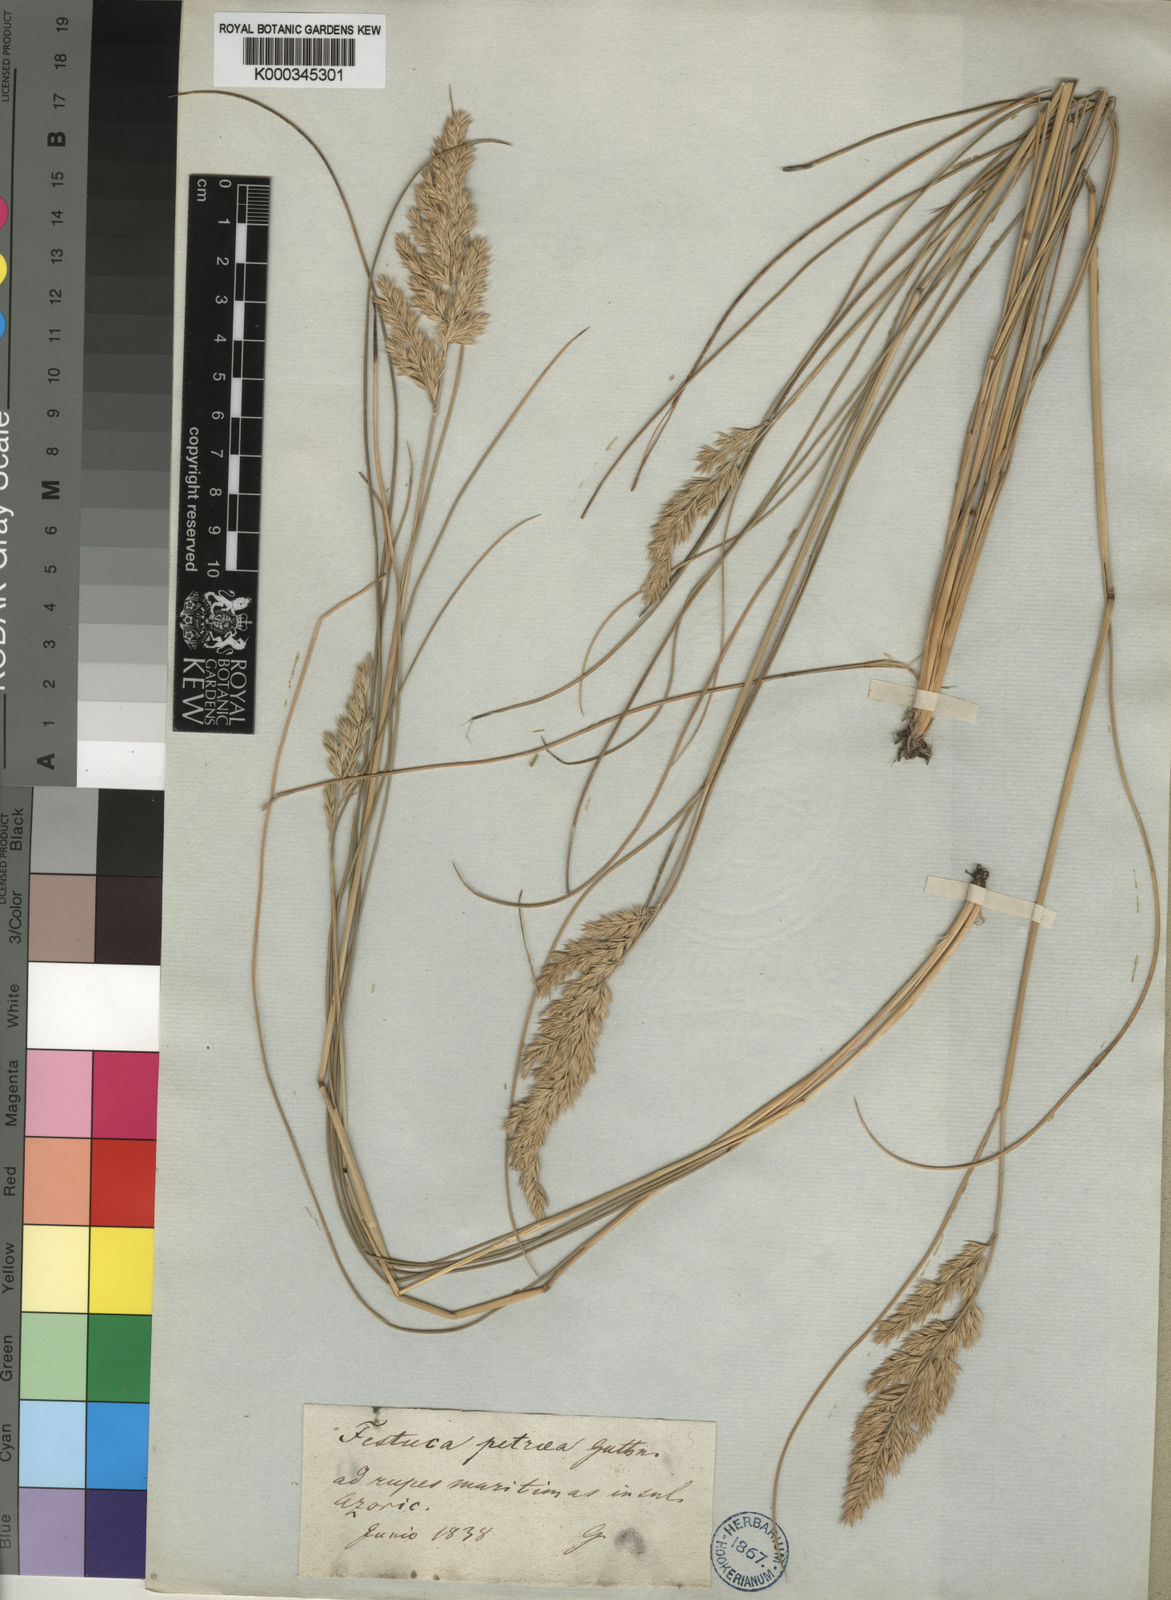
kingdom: Plantae
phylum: Tracheophyta
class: Liliopsida
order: Poales
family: Poaceae
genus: Festuca
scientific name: Festuca
